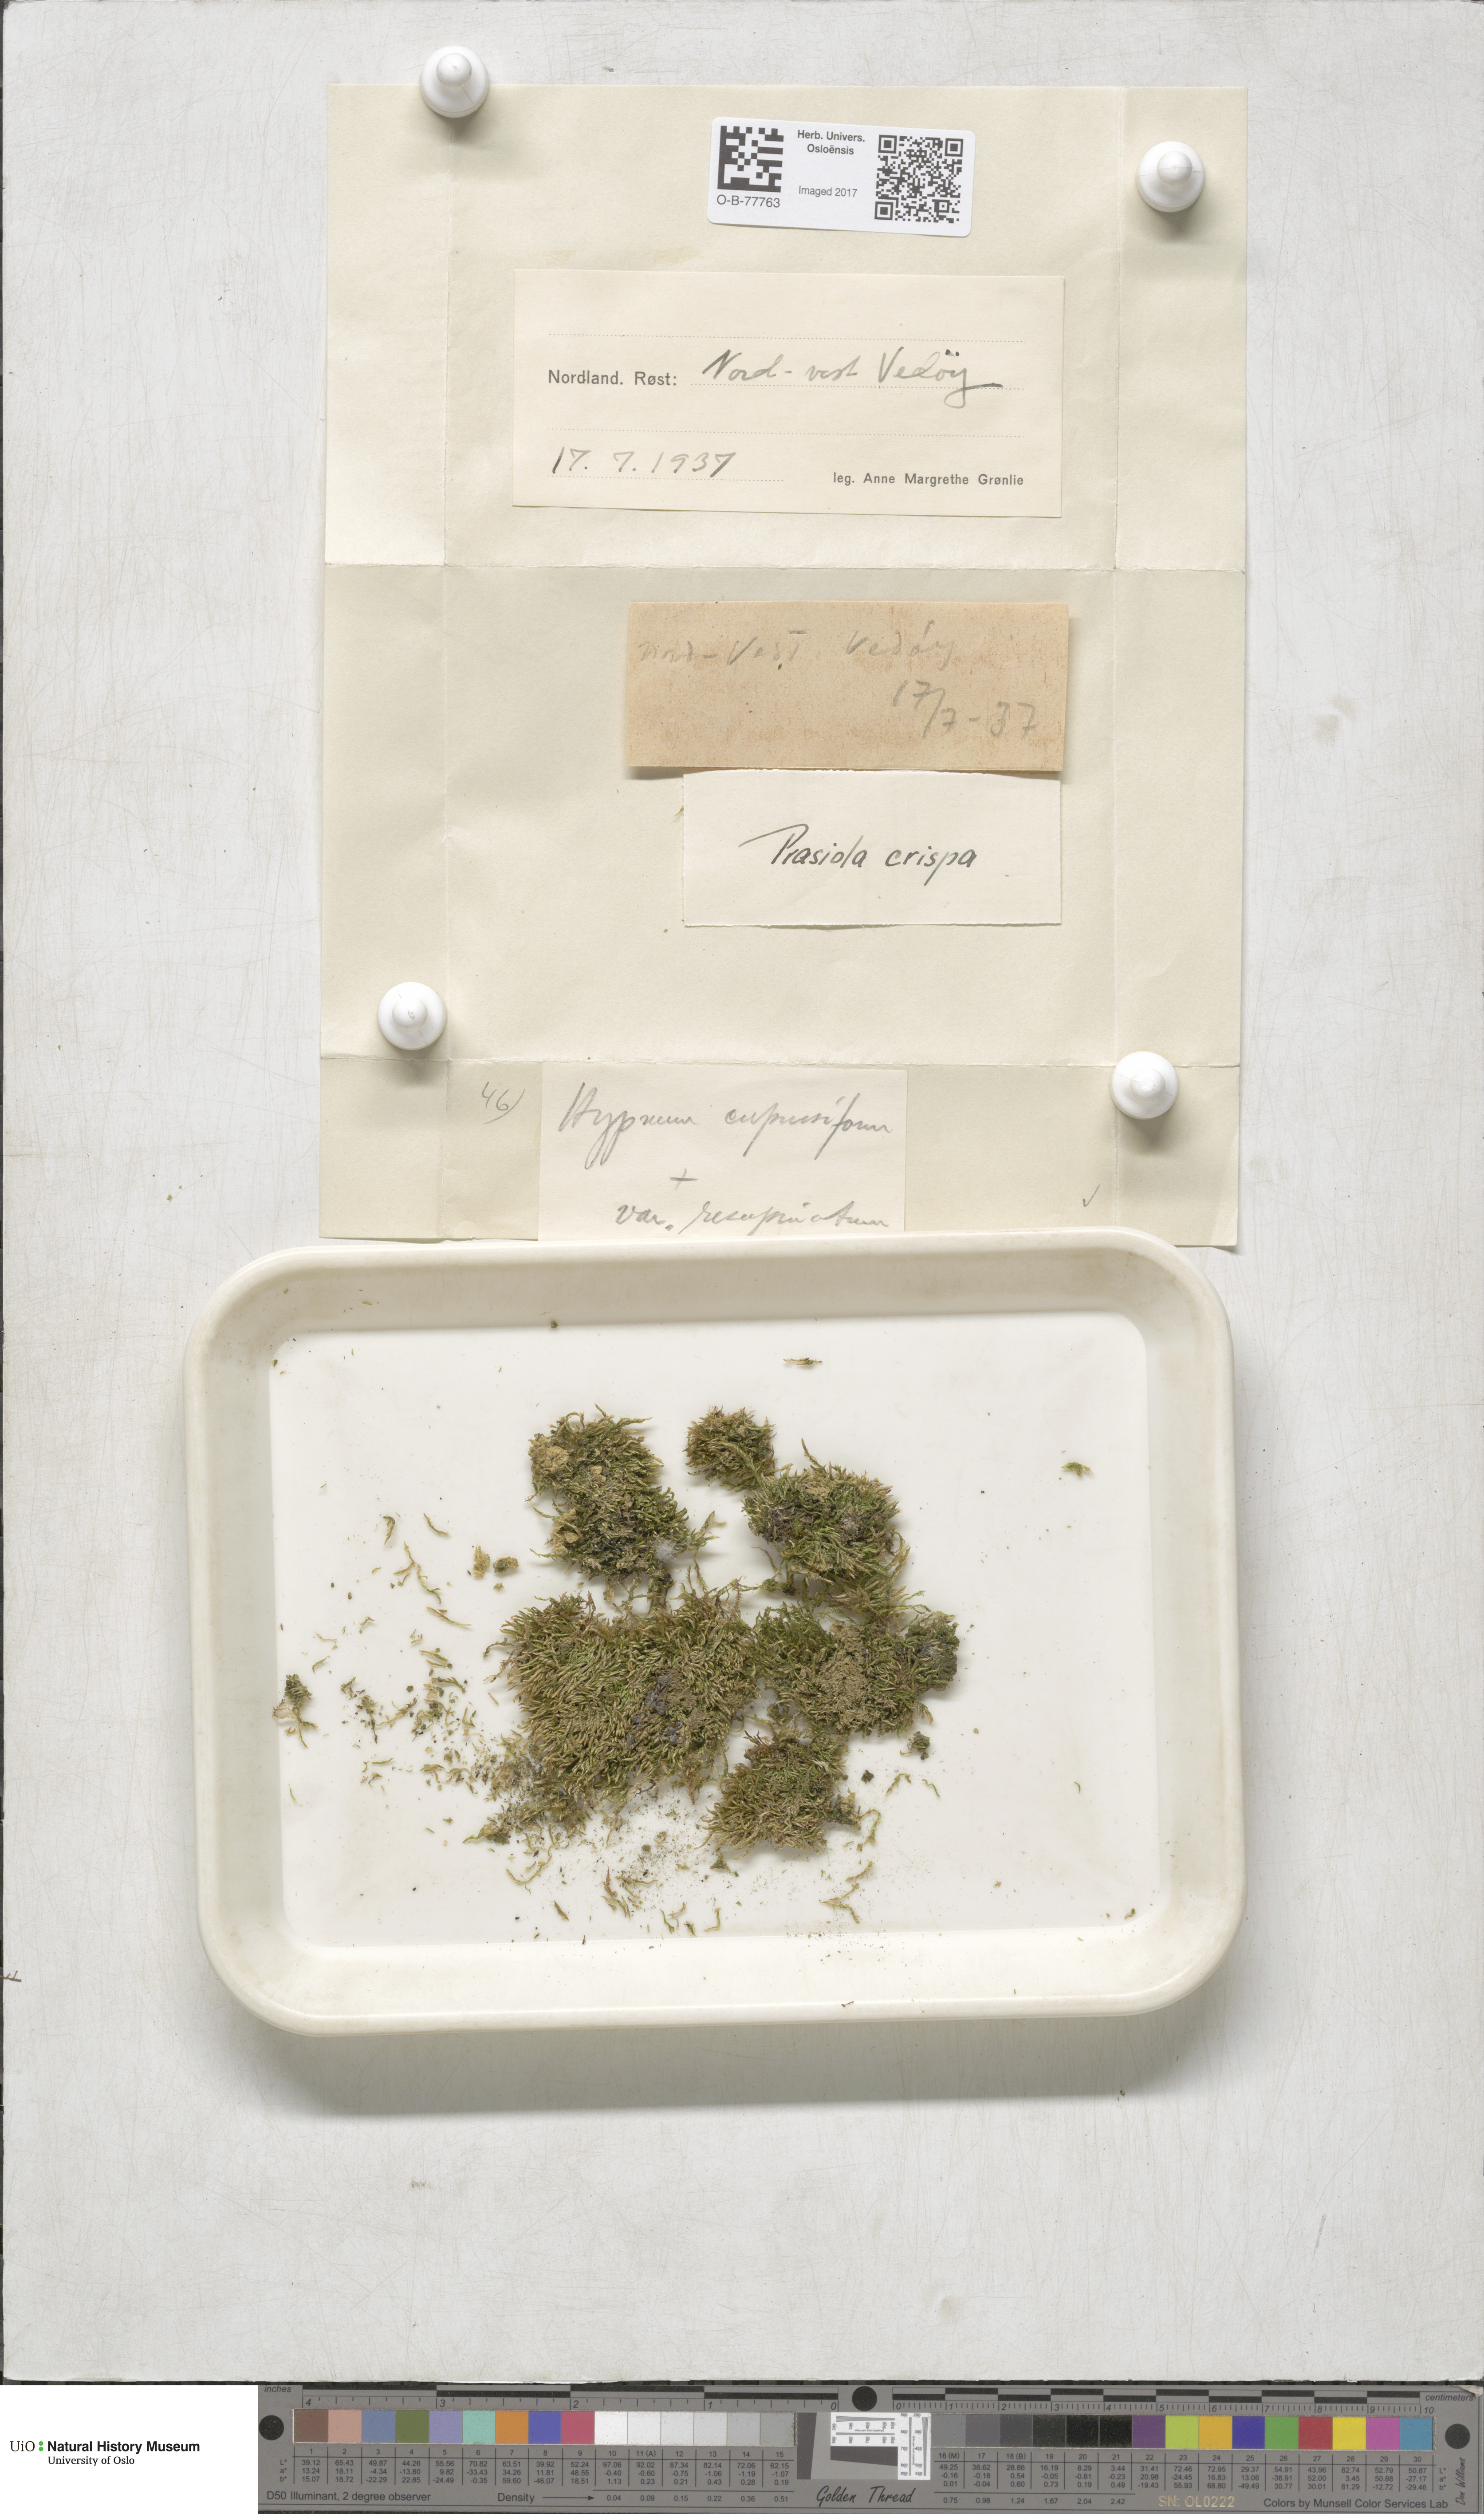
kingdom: Plantae
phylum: Bryophyta
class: Bryopsida
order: Hypnales
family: Hypnaceae
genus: Hypnum
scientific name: Hypnum cupressiforme
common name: Cypress-leaved plait-moss
